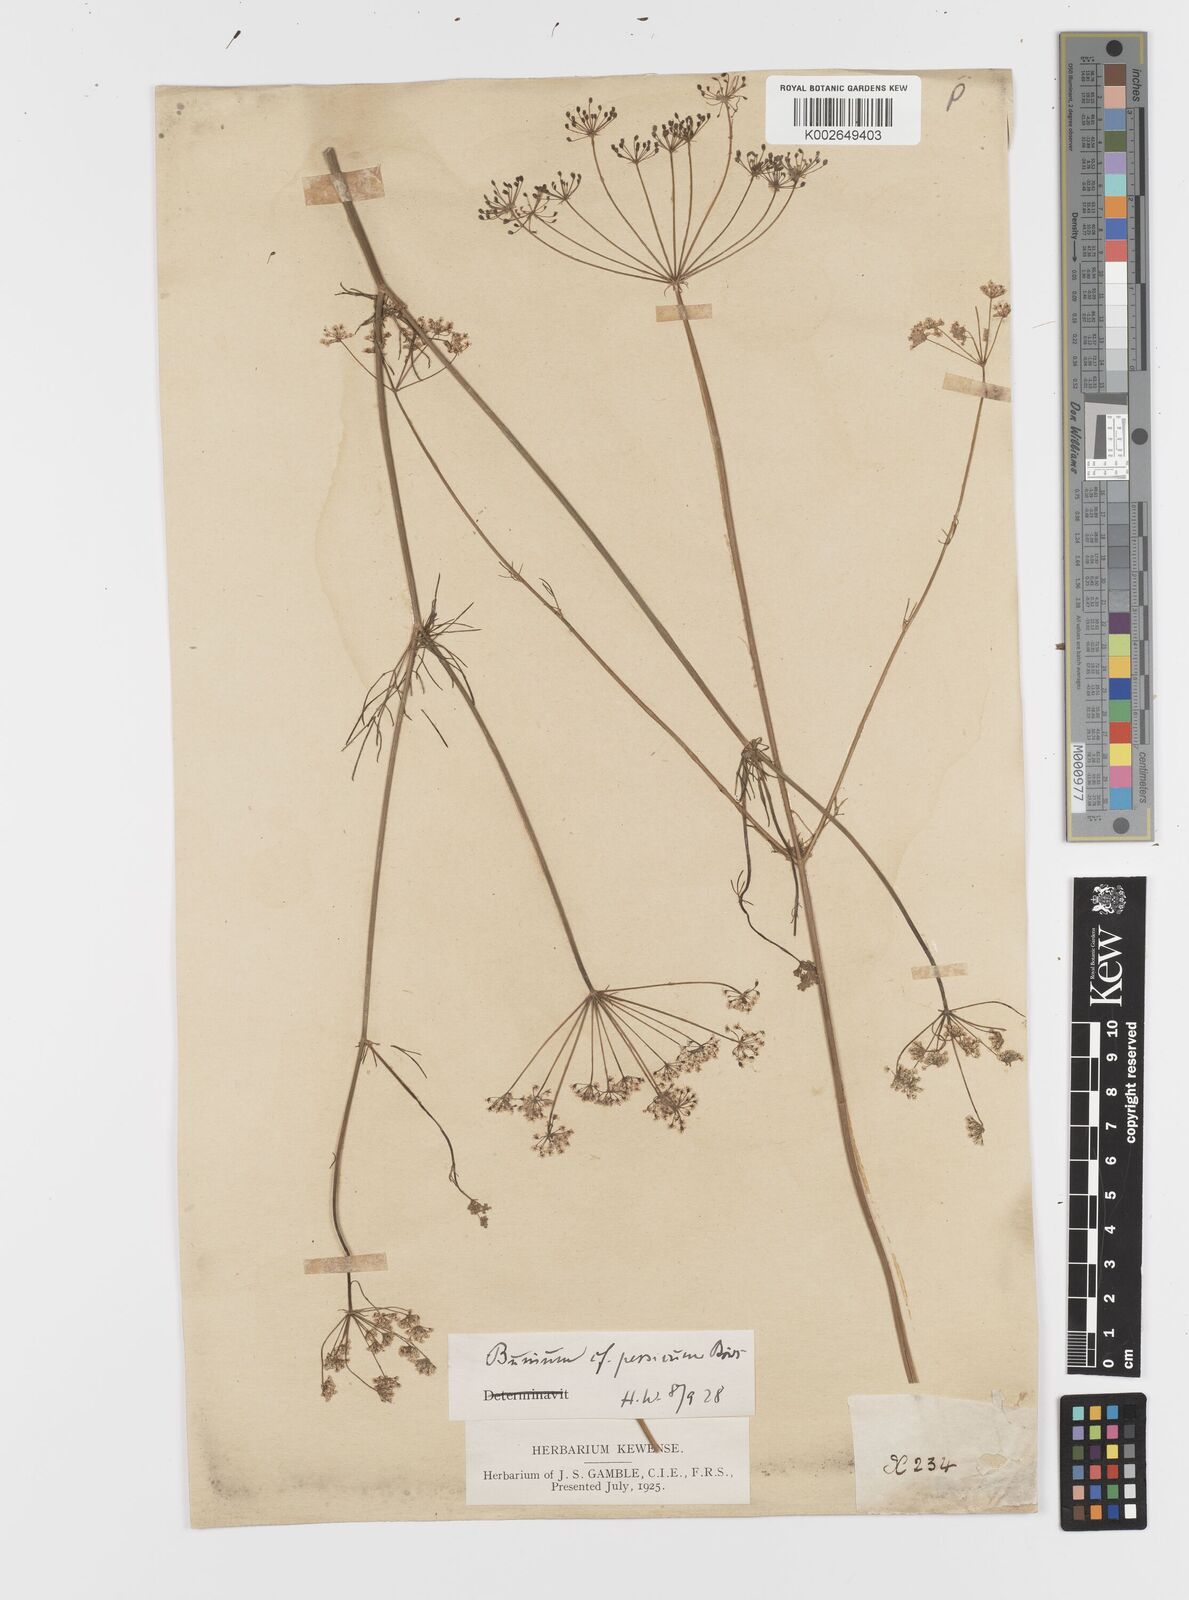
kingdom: Plantae
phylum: Tracheophyta
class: Magnoliopsida
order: Apiales
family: Apiaceae
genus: Elwendia
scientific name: Elwendia persica
